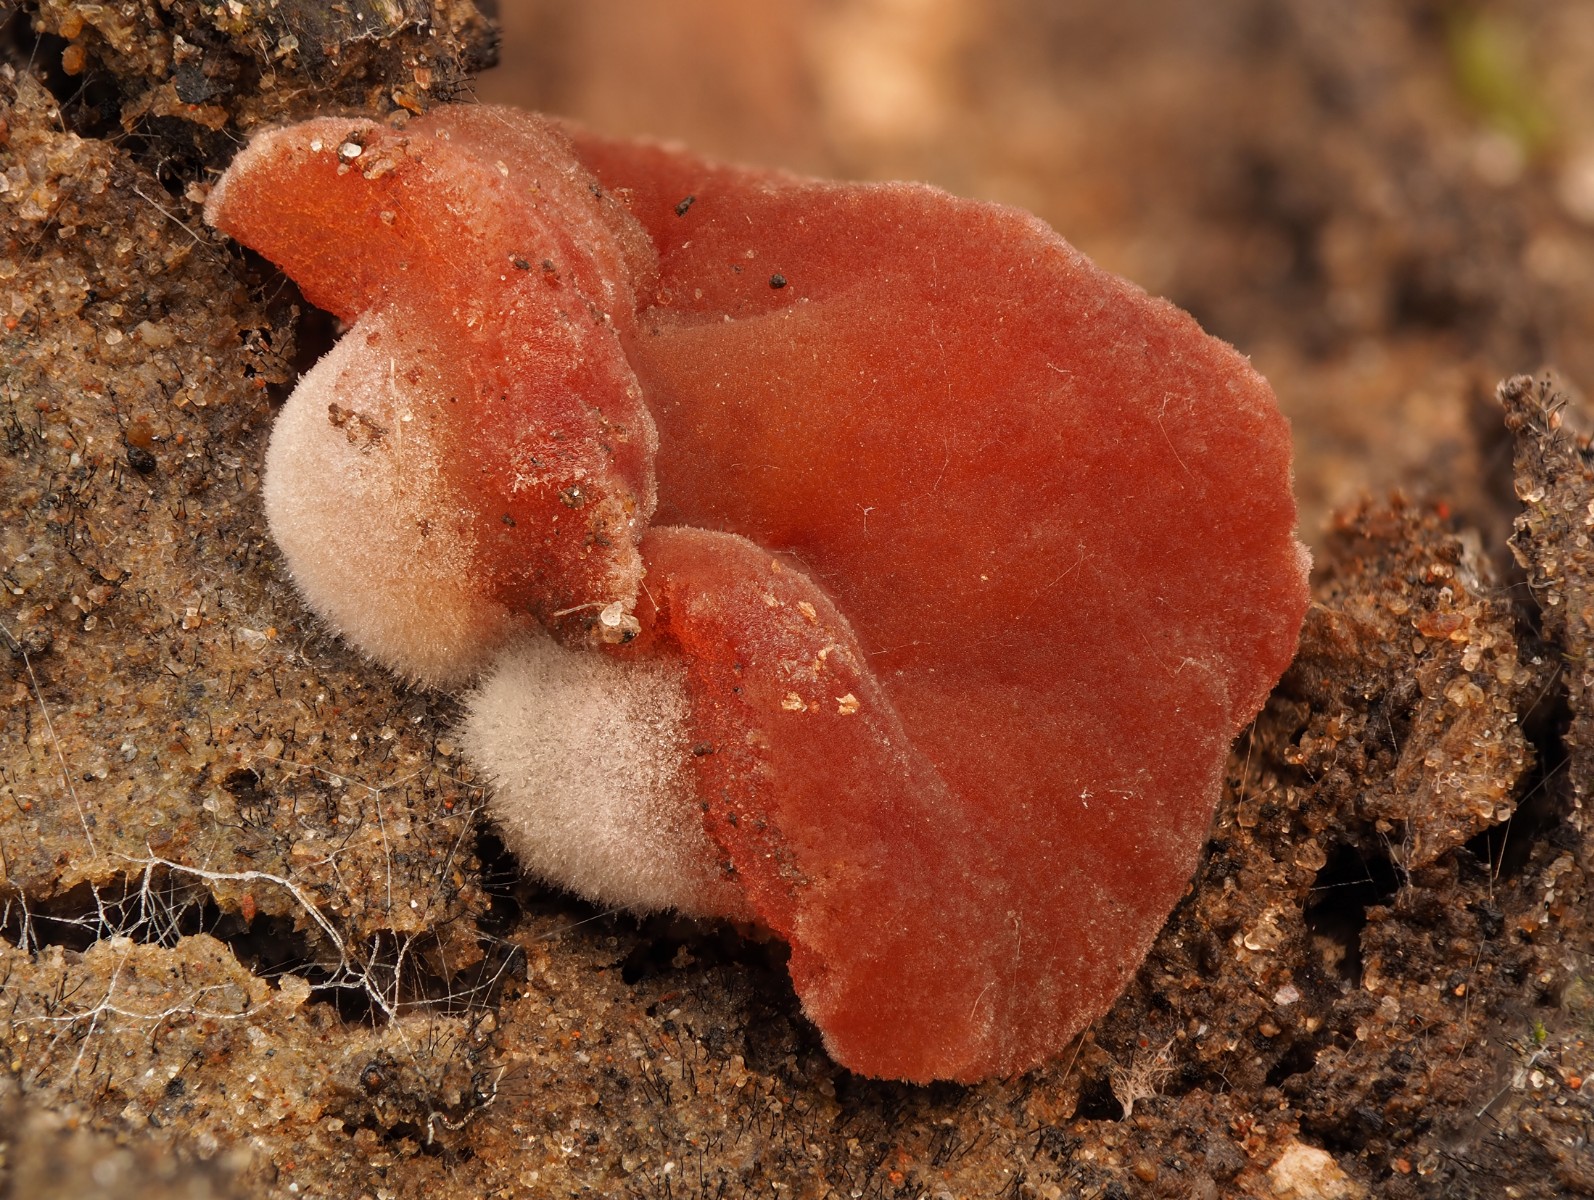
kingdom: Fungi
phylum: Ascomycota
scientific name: Ascomycota
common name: sæksvampe
